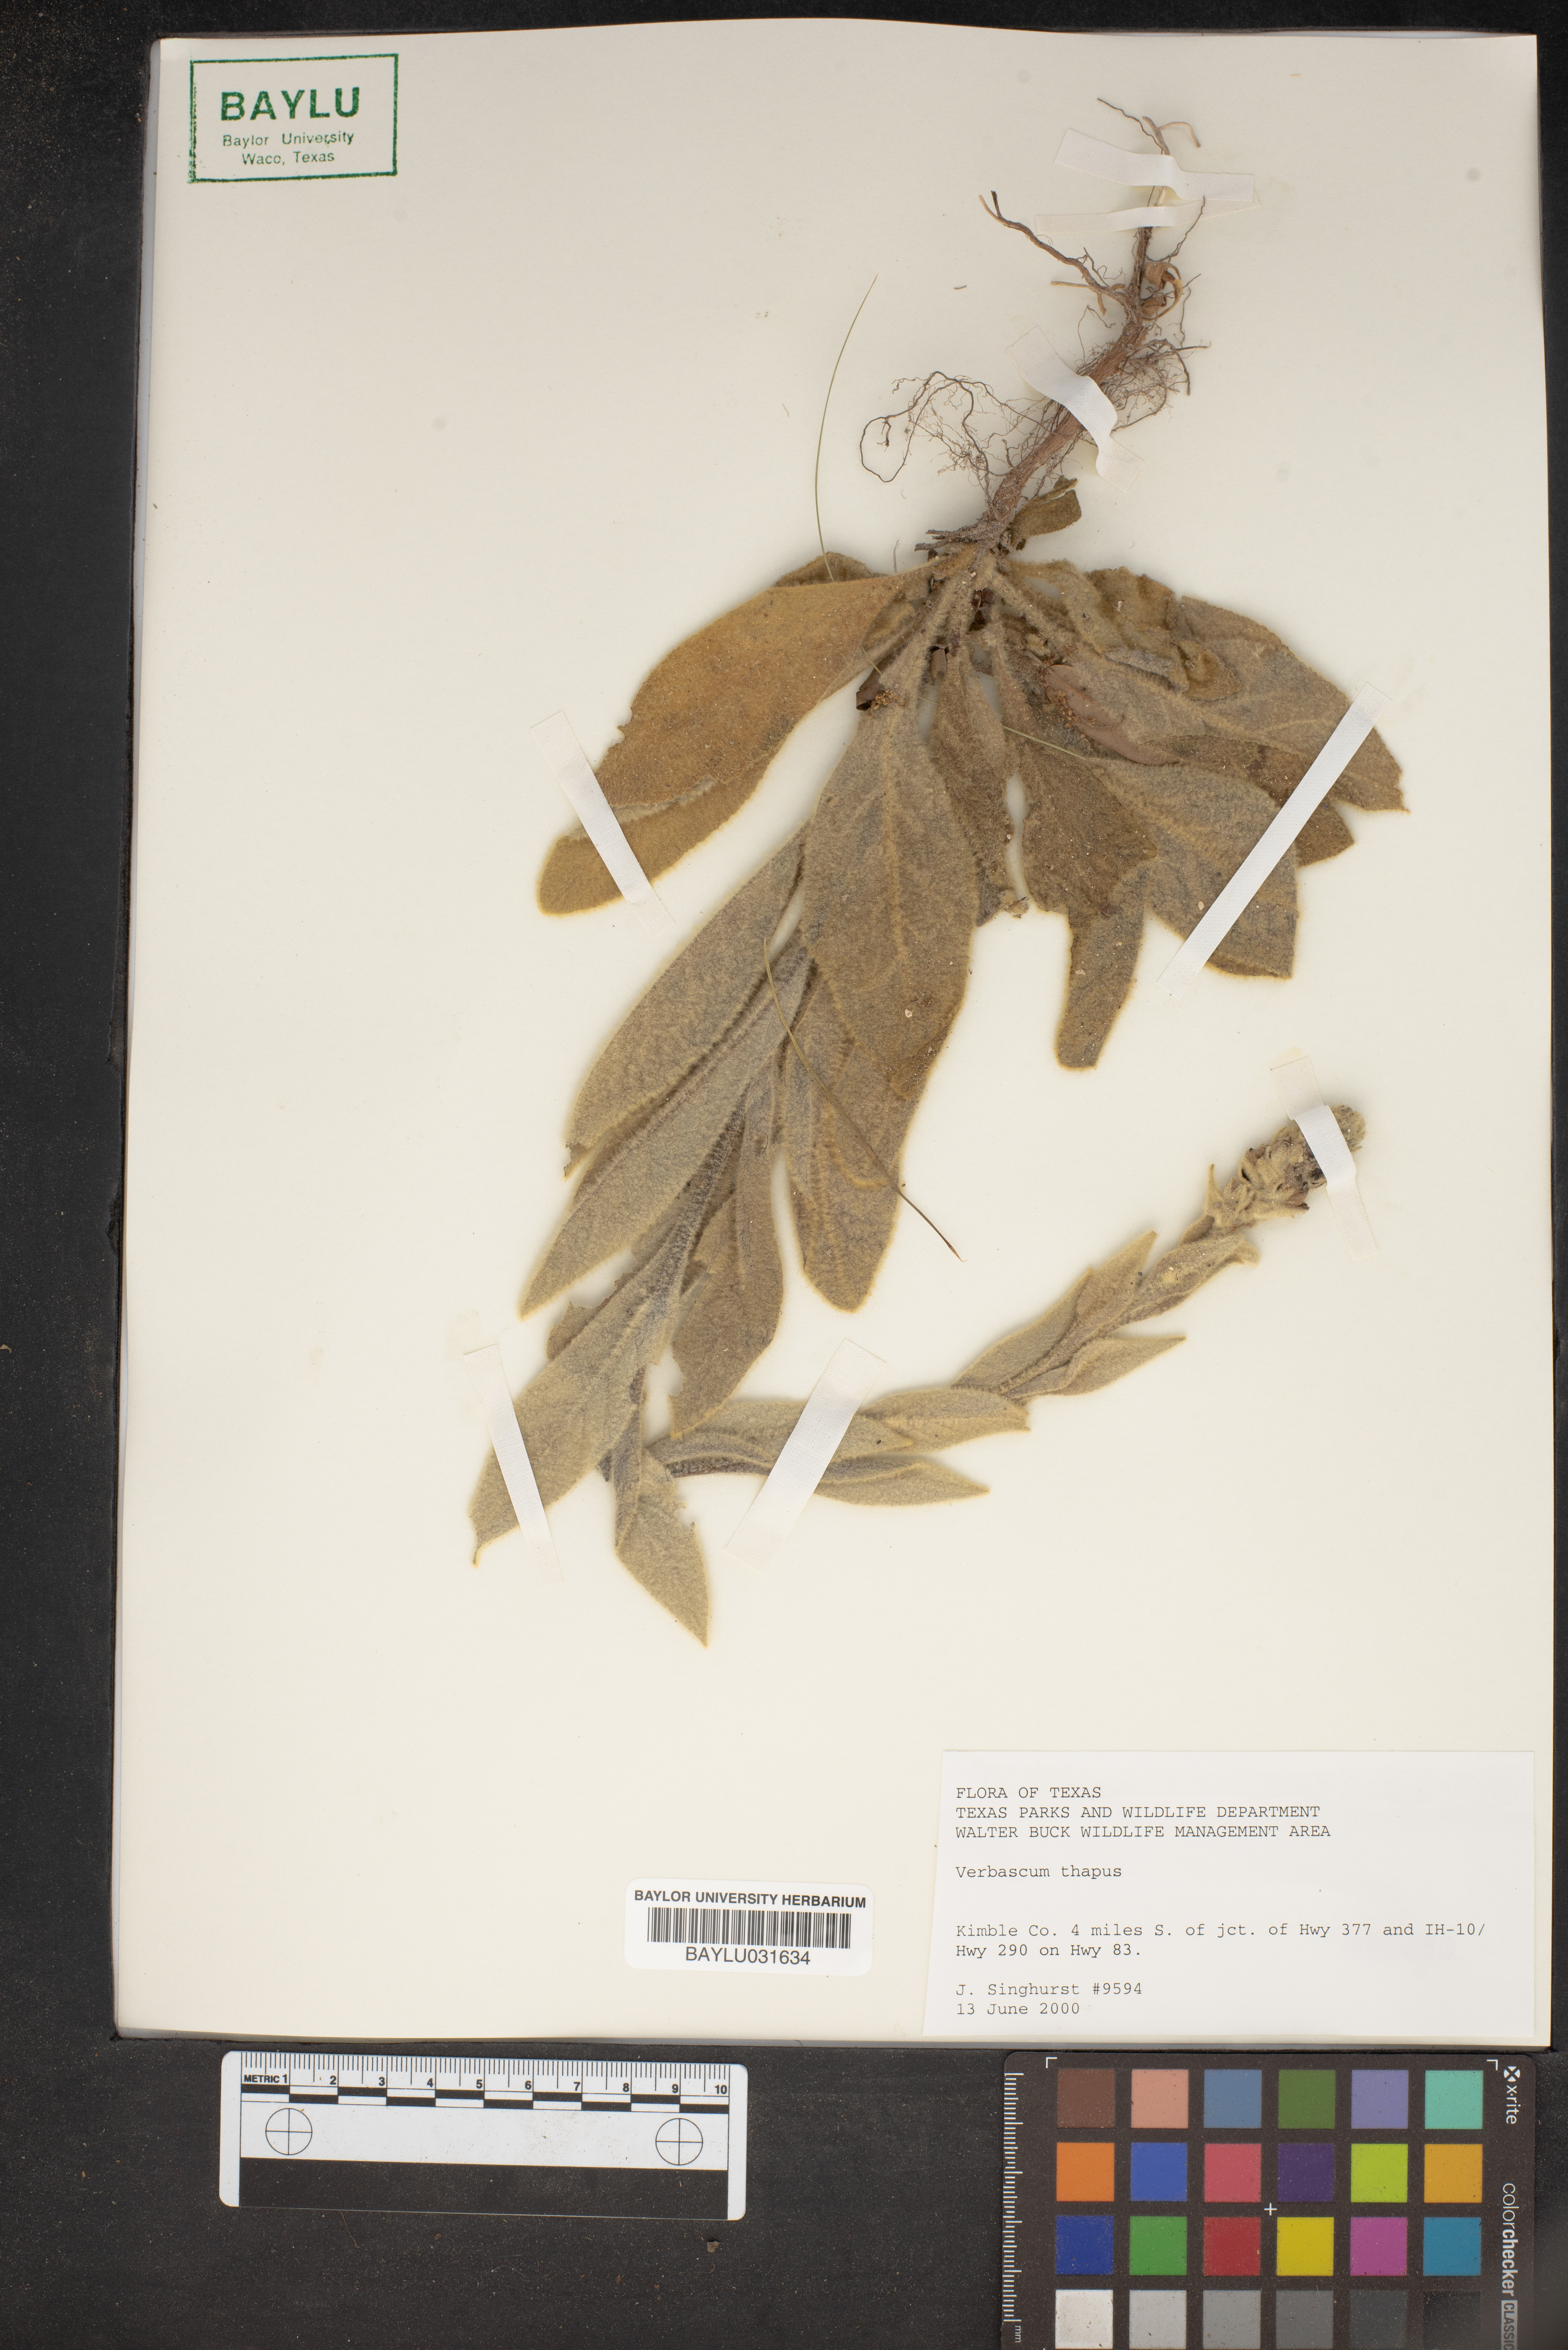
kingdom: Plantae
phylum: Tracheophyta
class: Magnoliopsida
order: Lamiales
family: Scrophulariaceae
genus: Verbascum
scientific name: Verbascum thapsus
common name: Common mullein
